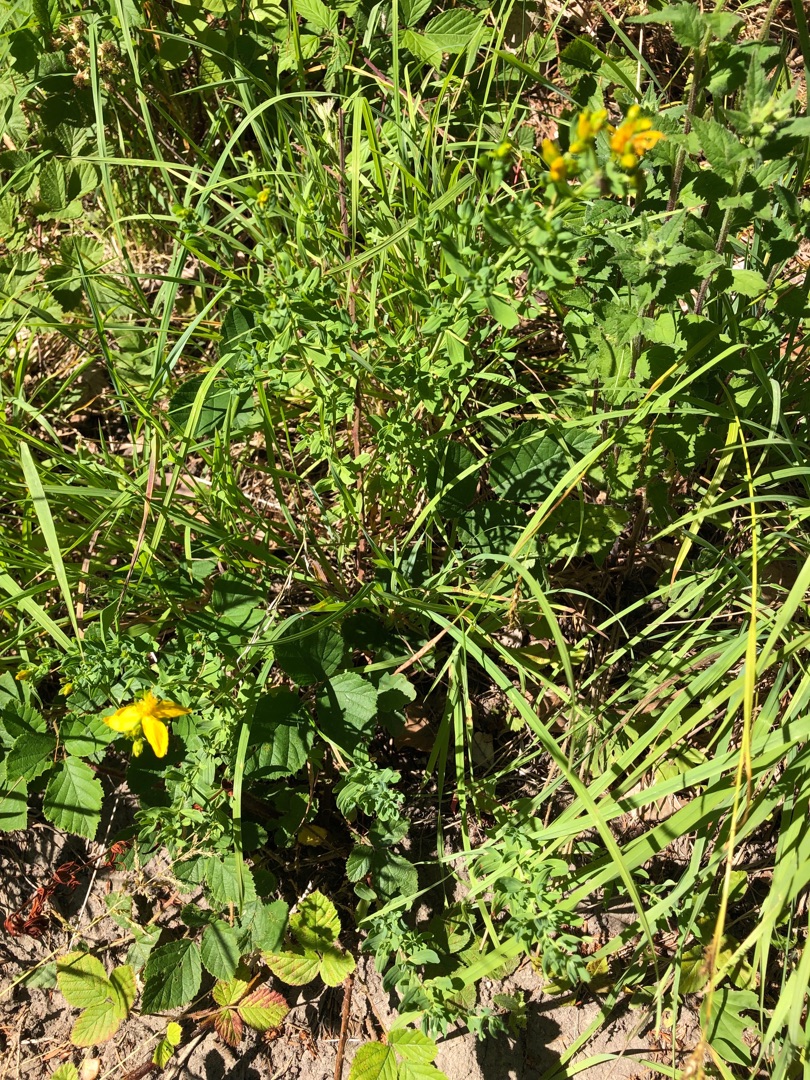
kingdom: Plantae
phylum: Tracheophyta
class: Magnoliopsida
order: Malpighiales
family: Hypericaceae
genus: Hypericum
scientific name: Hypericum
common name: Perikonslægten
